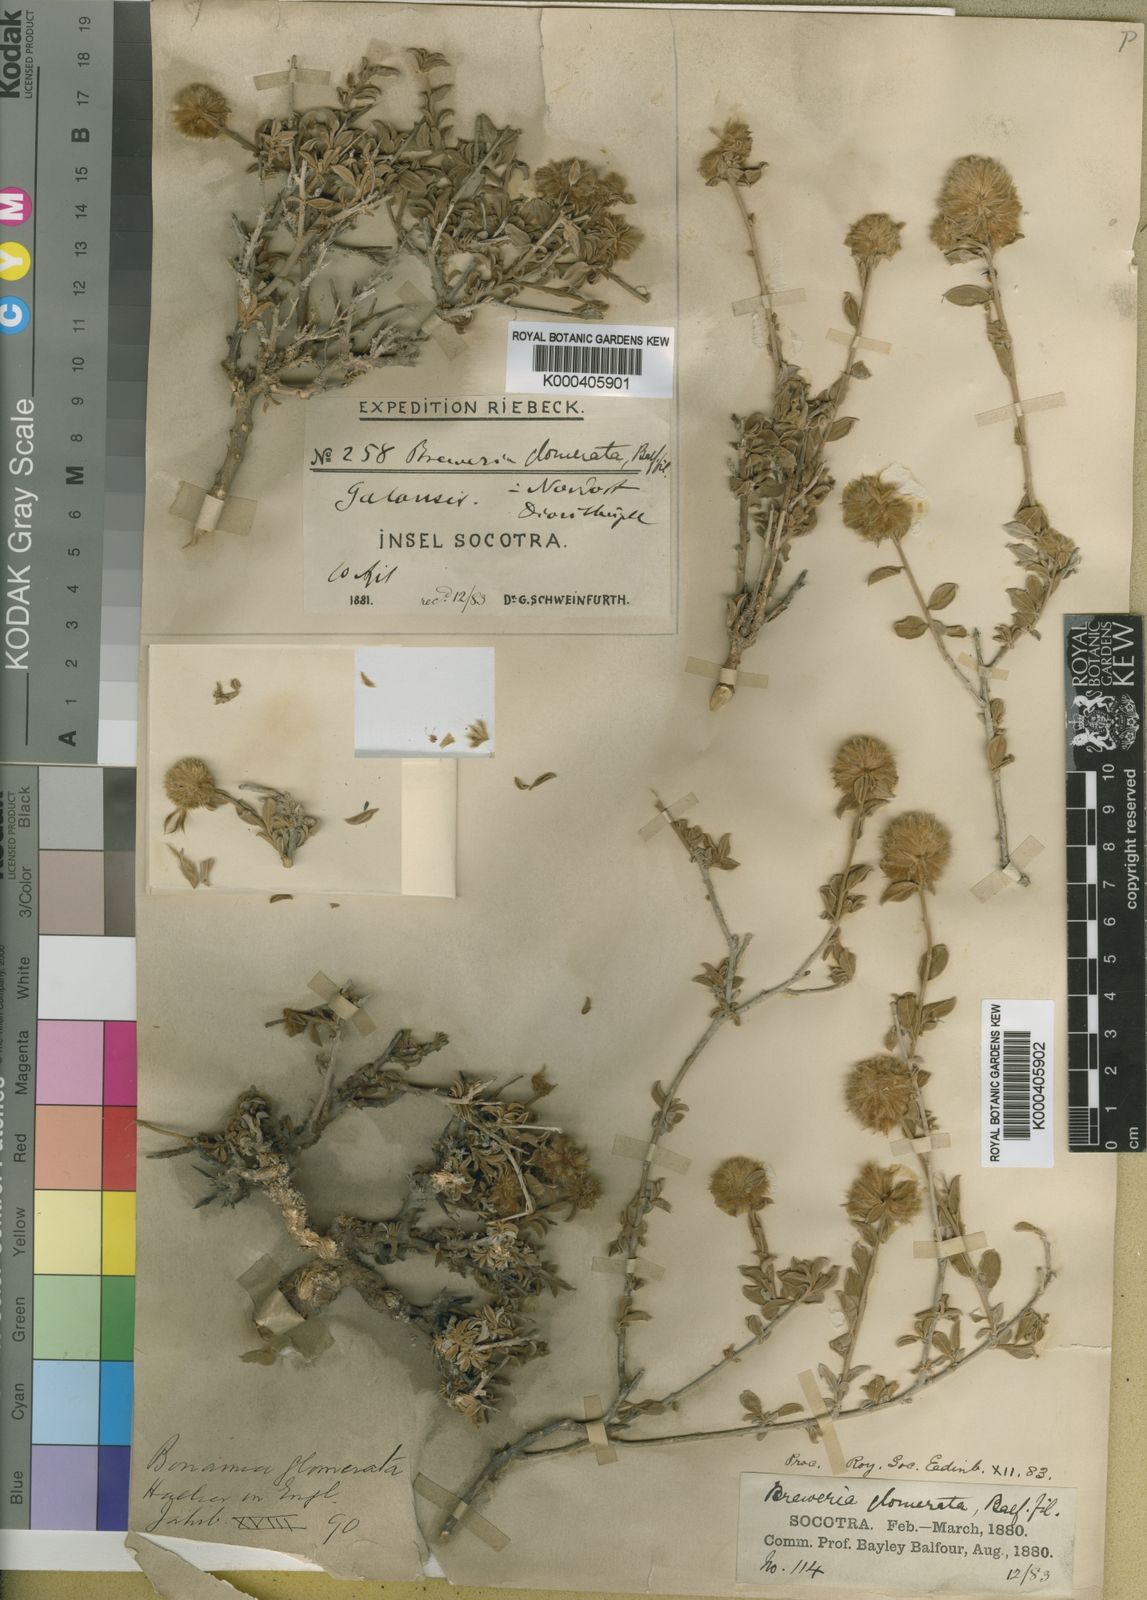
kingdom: Plantae
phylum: Tracheophyta
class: Magnoliopsida
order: Solanales
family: Convolvulaceae
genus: Seddera
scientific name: Seddera glomerata
